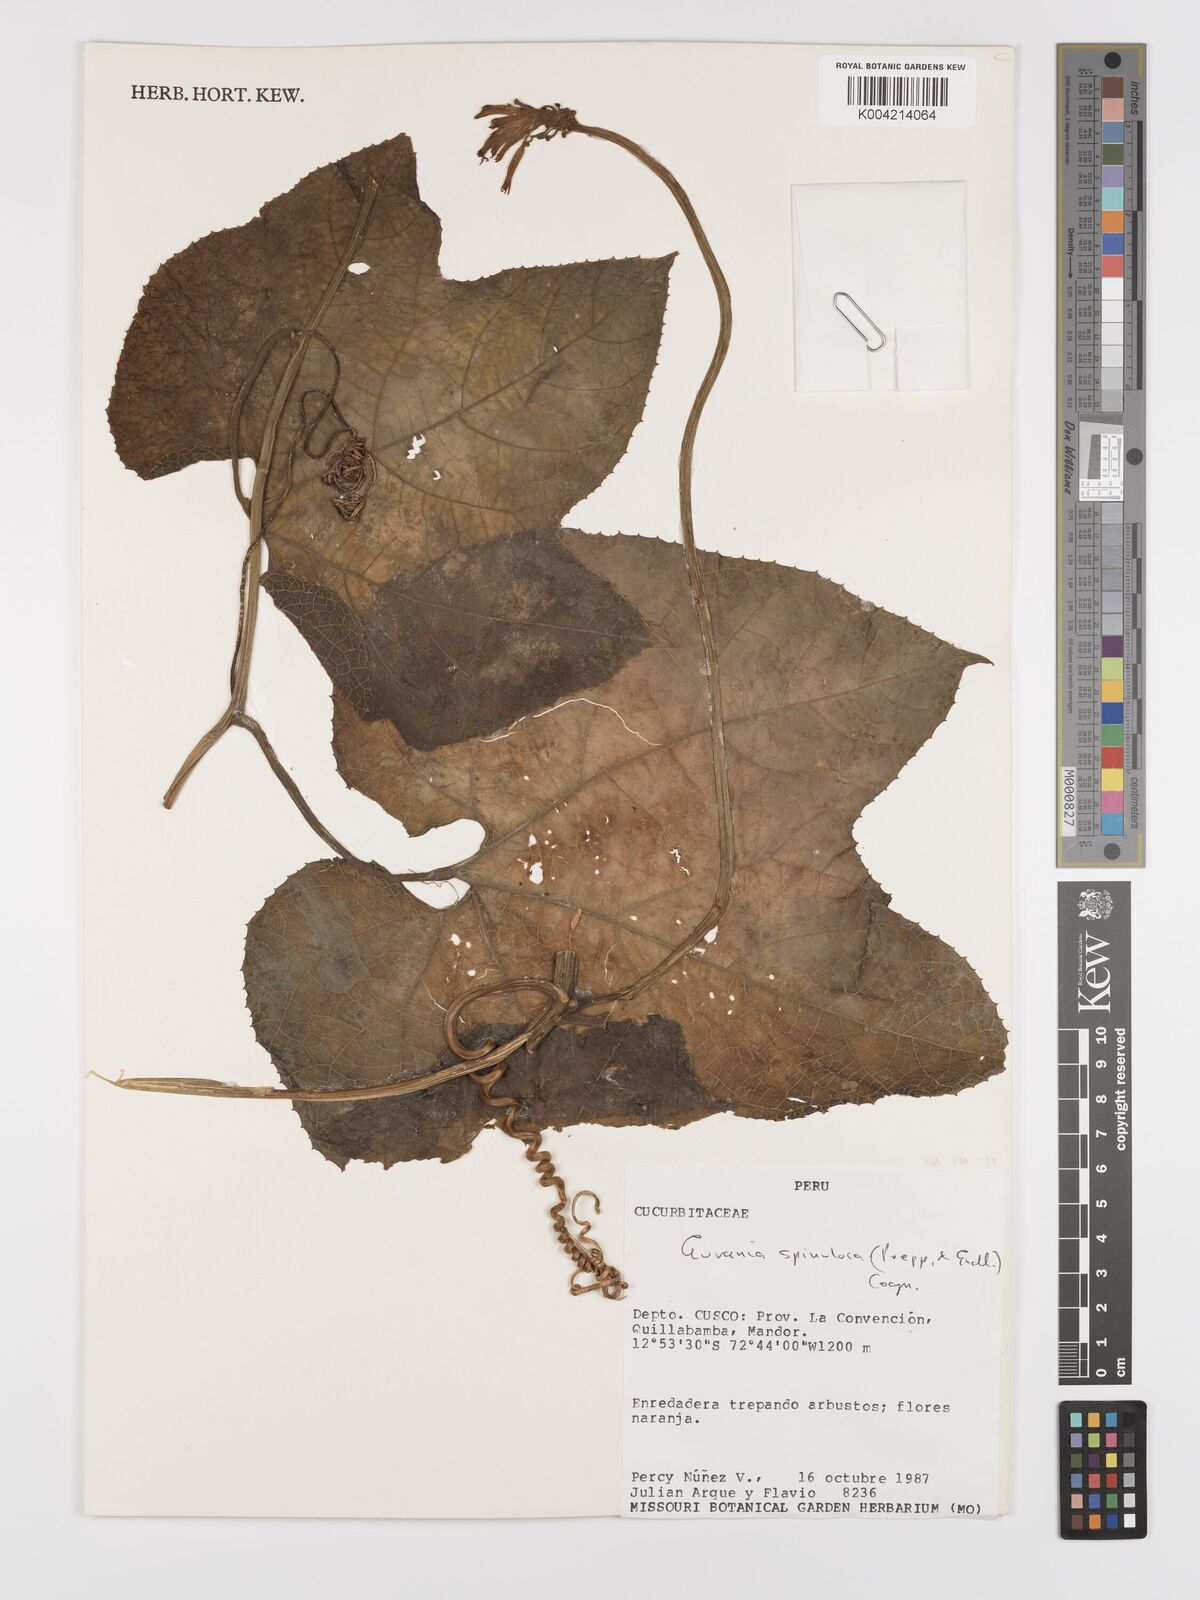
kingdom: Plantae
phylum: Tracheophyta
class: Magnoliopsida
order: Cucurbitales
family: Cucurbitaceae
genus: Gurania
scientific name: Gurania lobata
